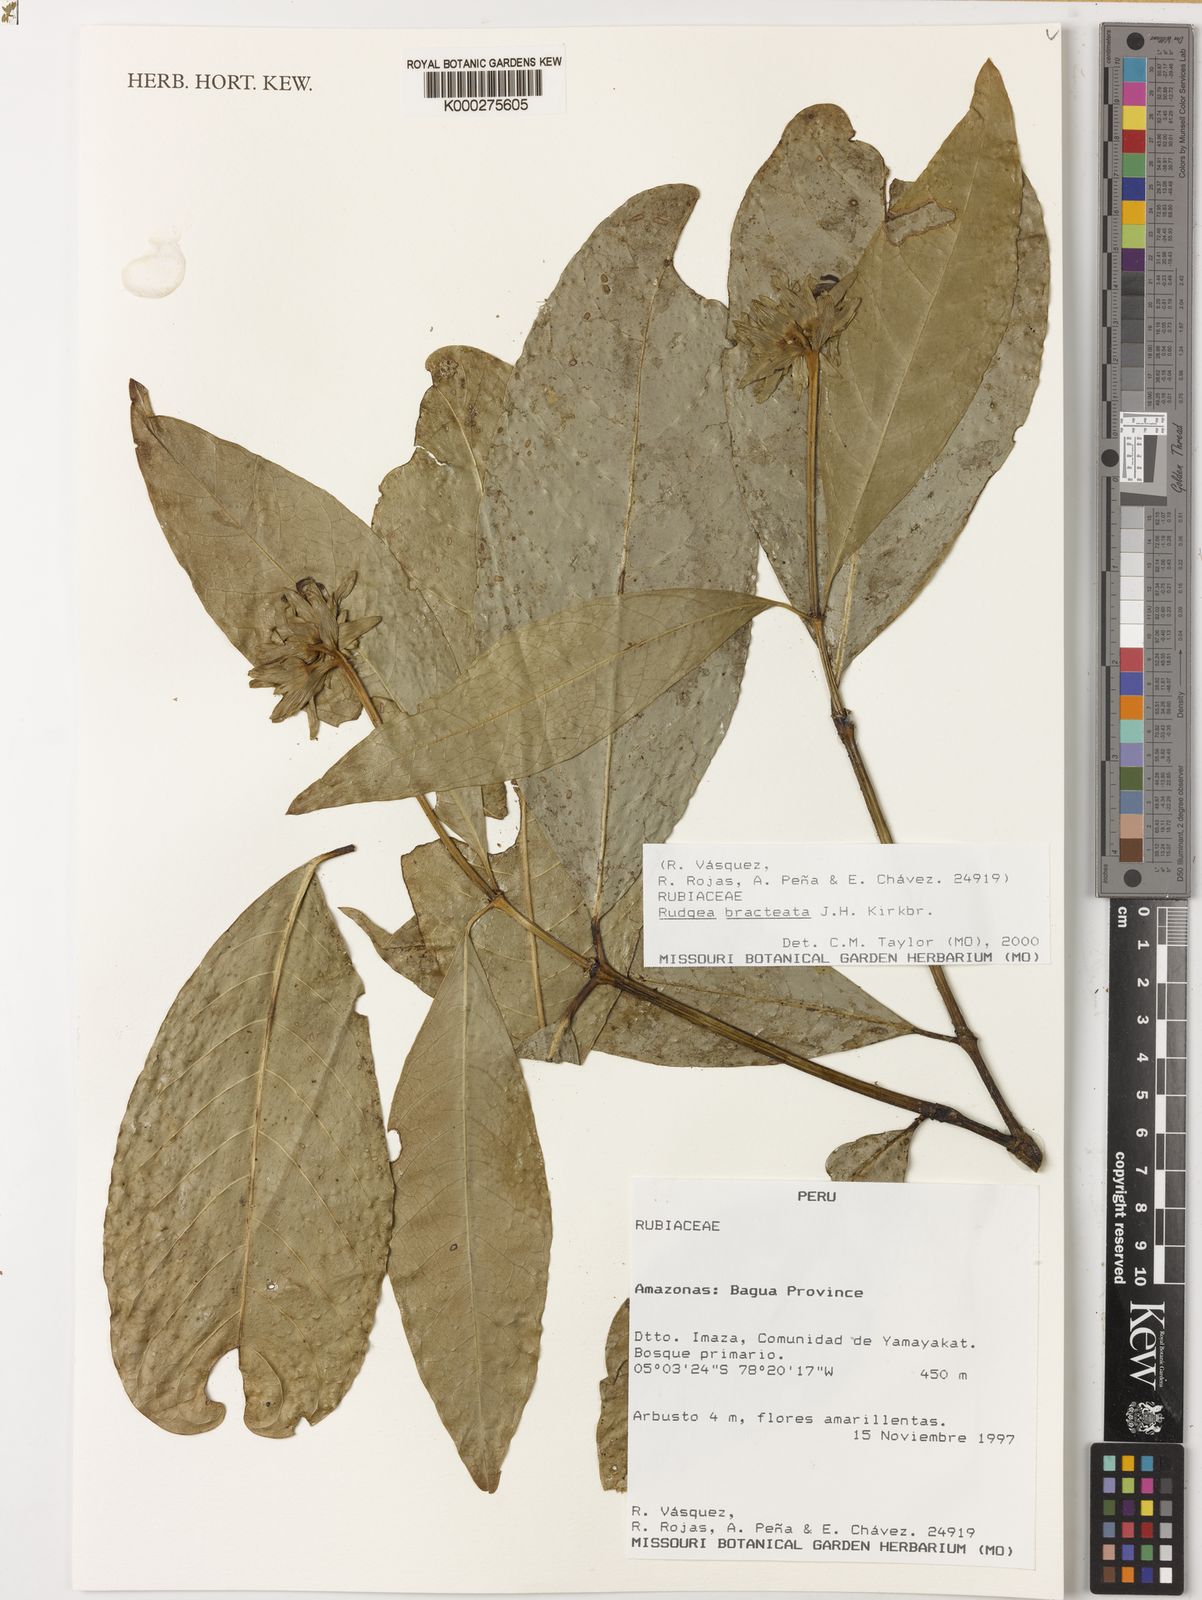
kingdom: Plantae
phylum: Tracheophyta
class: Magnoliopsida
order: Gentianales
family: Rubiaceae
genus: Rudgea
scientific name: Rudgea bracteata
